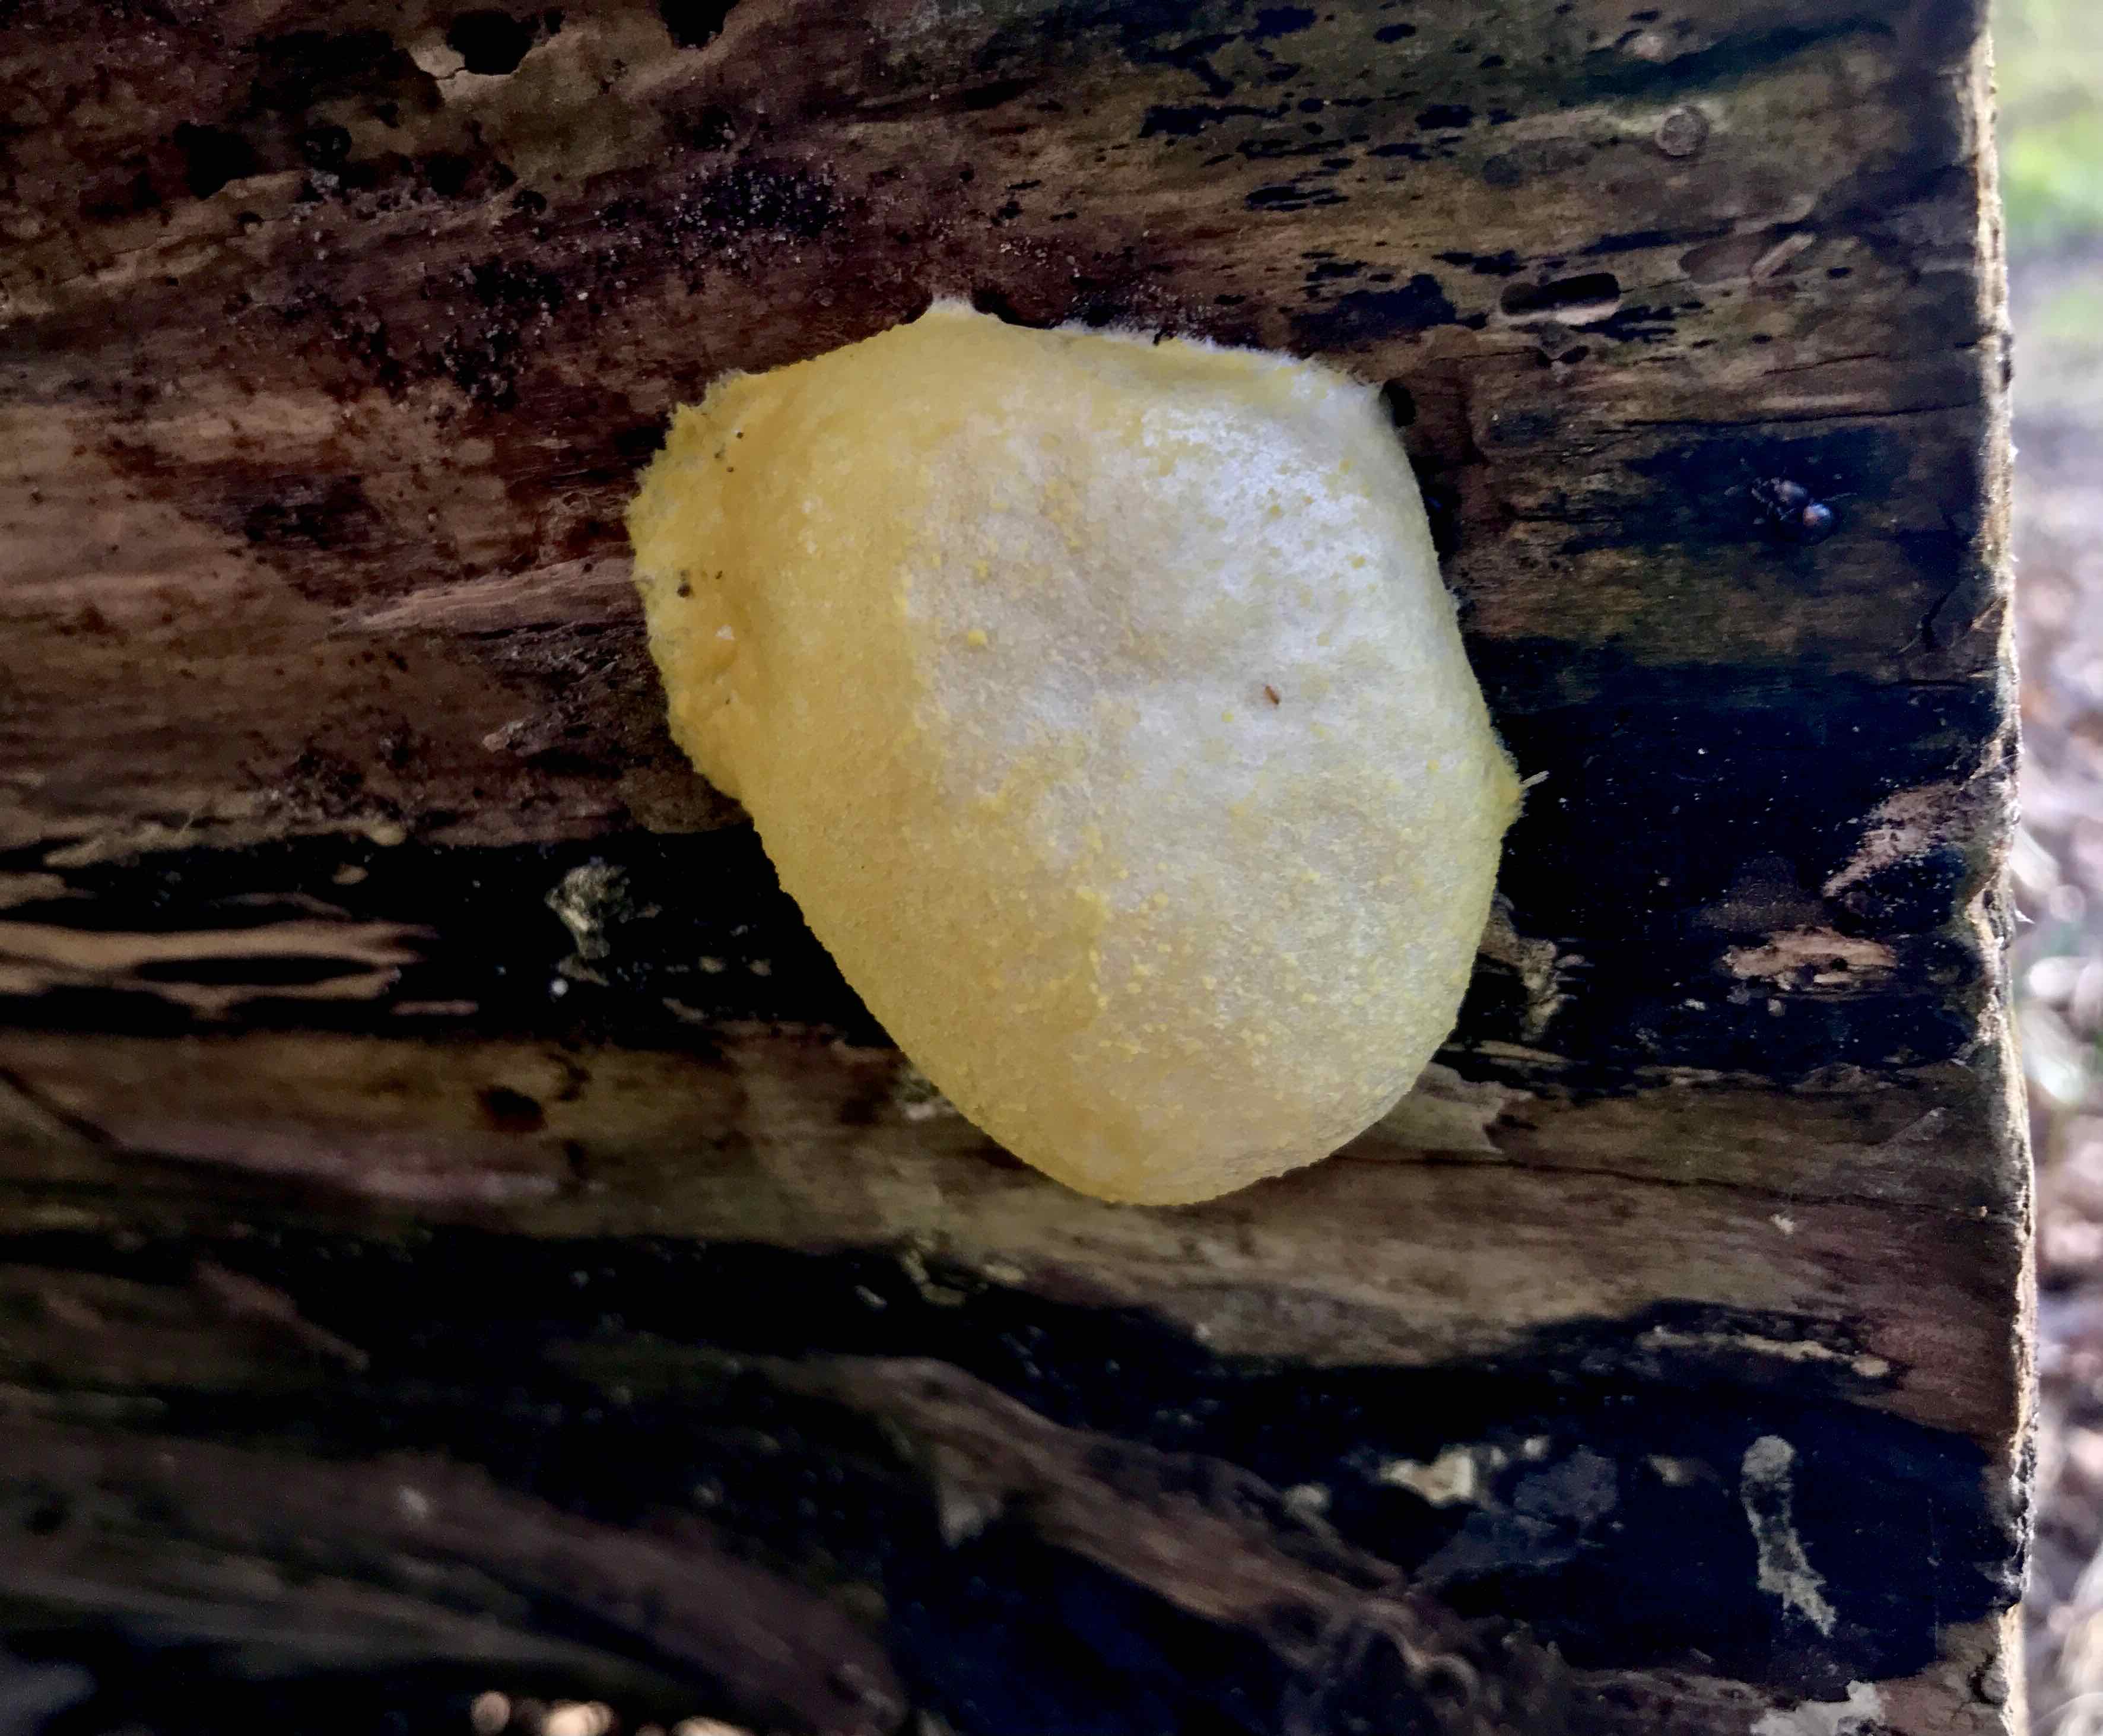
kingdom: Protozoa
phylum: Mycetozoa
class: Myxomycetes
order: Cribrariales
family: Tubiferaceae
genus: Reticularia
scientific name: Reticularia lycoperdon
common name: skinnende støvpude
